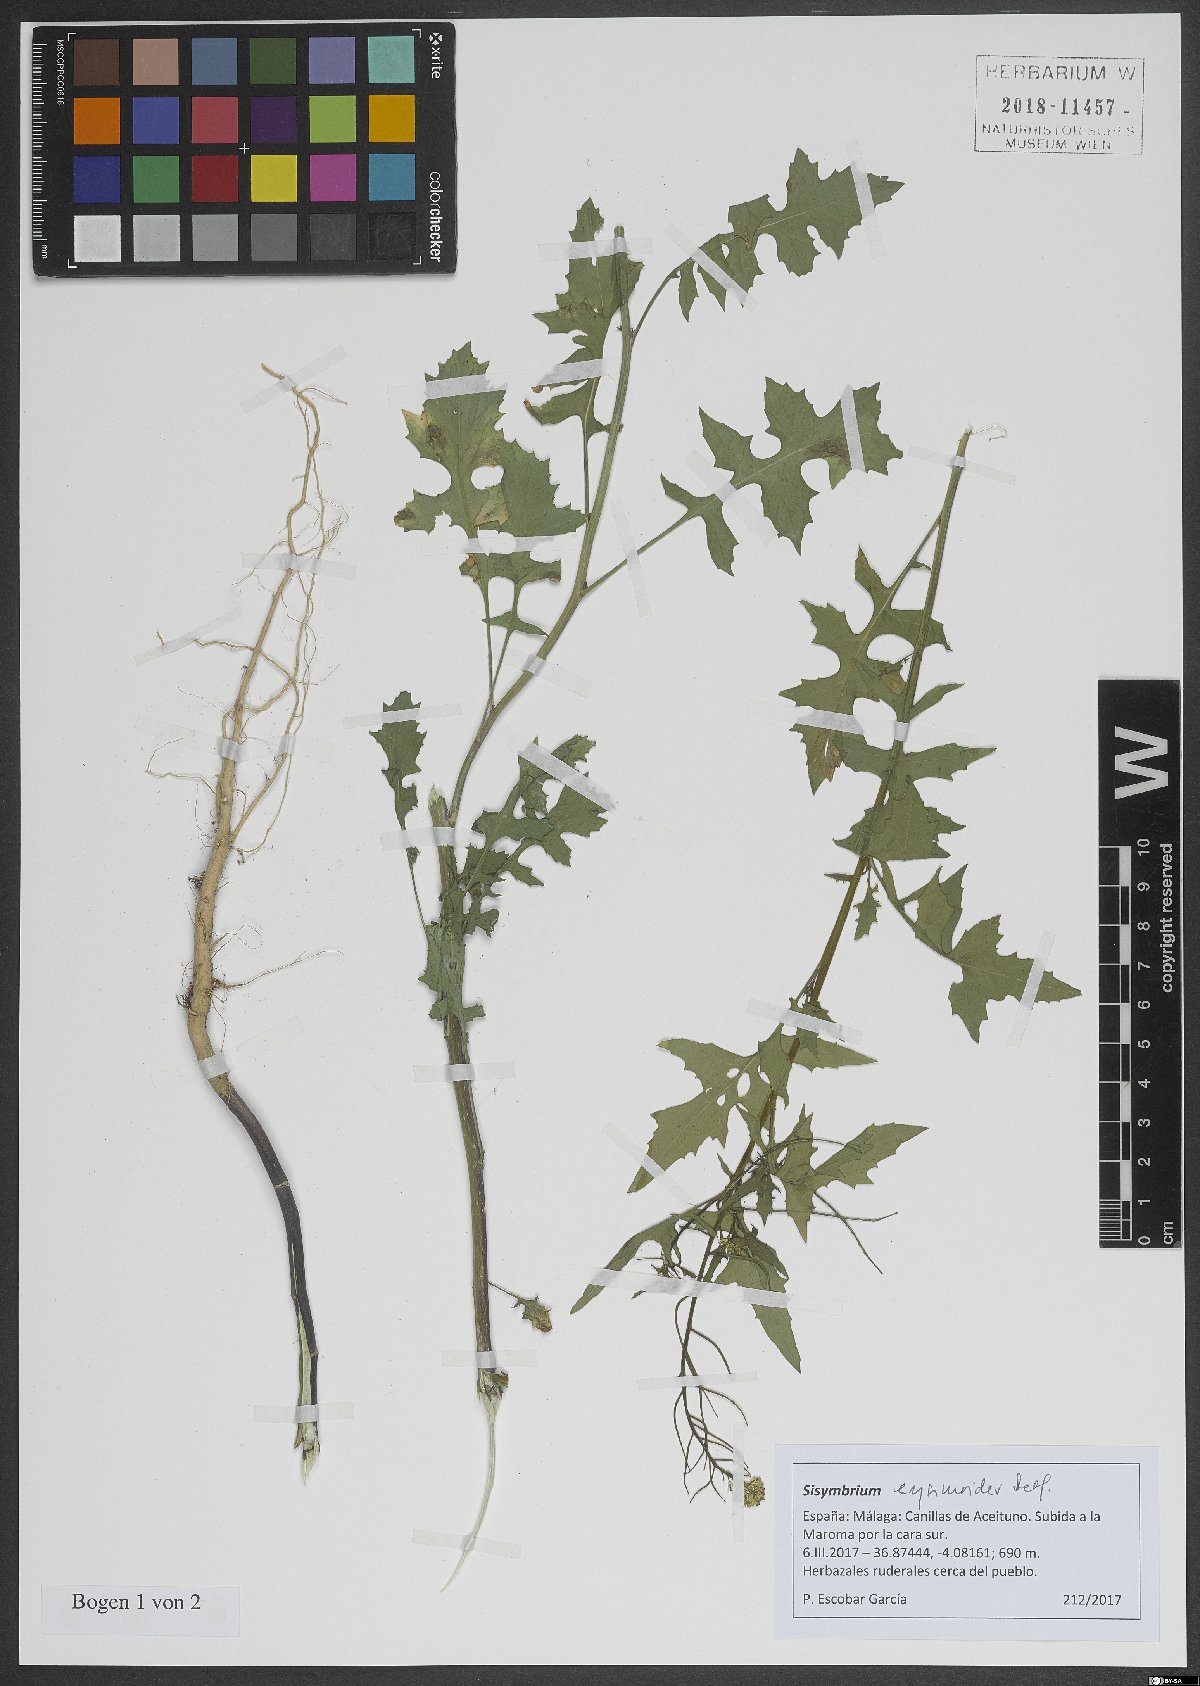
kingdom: Plantae
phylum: Tracheophyta
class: Magnoliopsida
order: Brassicales
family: Brassicaceae
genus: Sisymbrium
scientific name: Sisymbrium erysimoides
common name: French rocket
